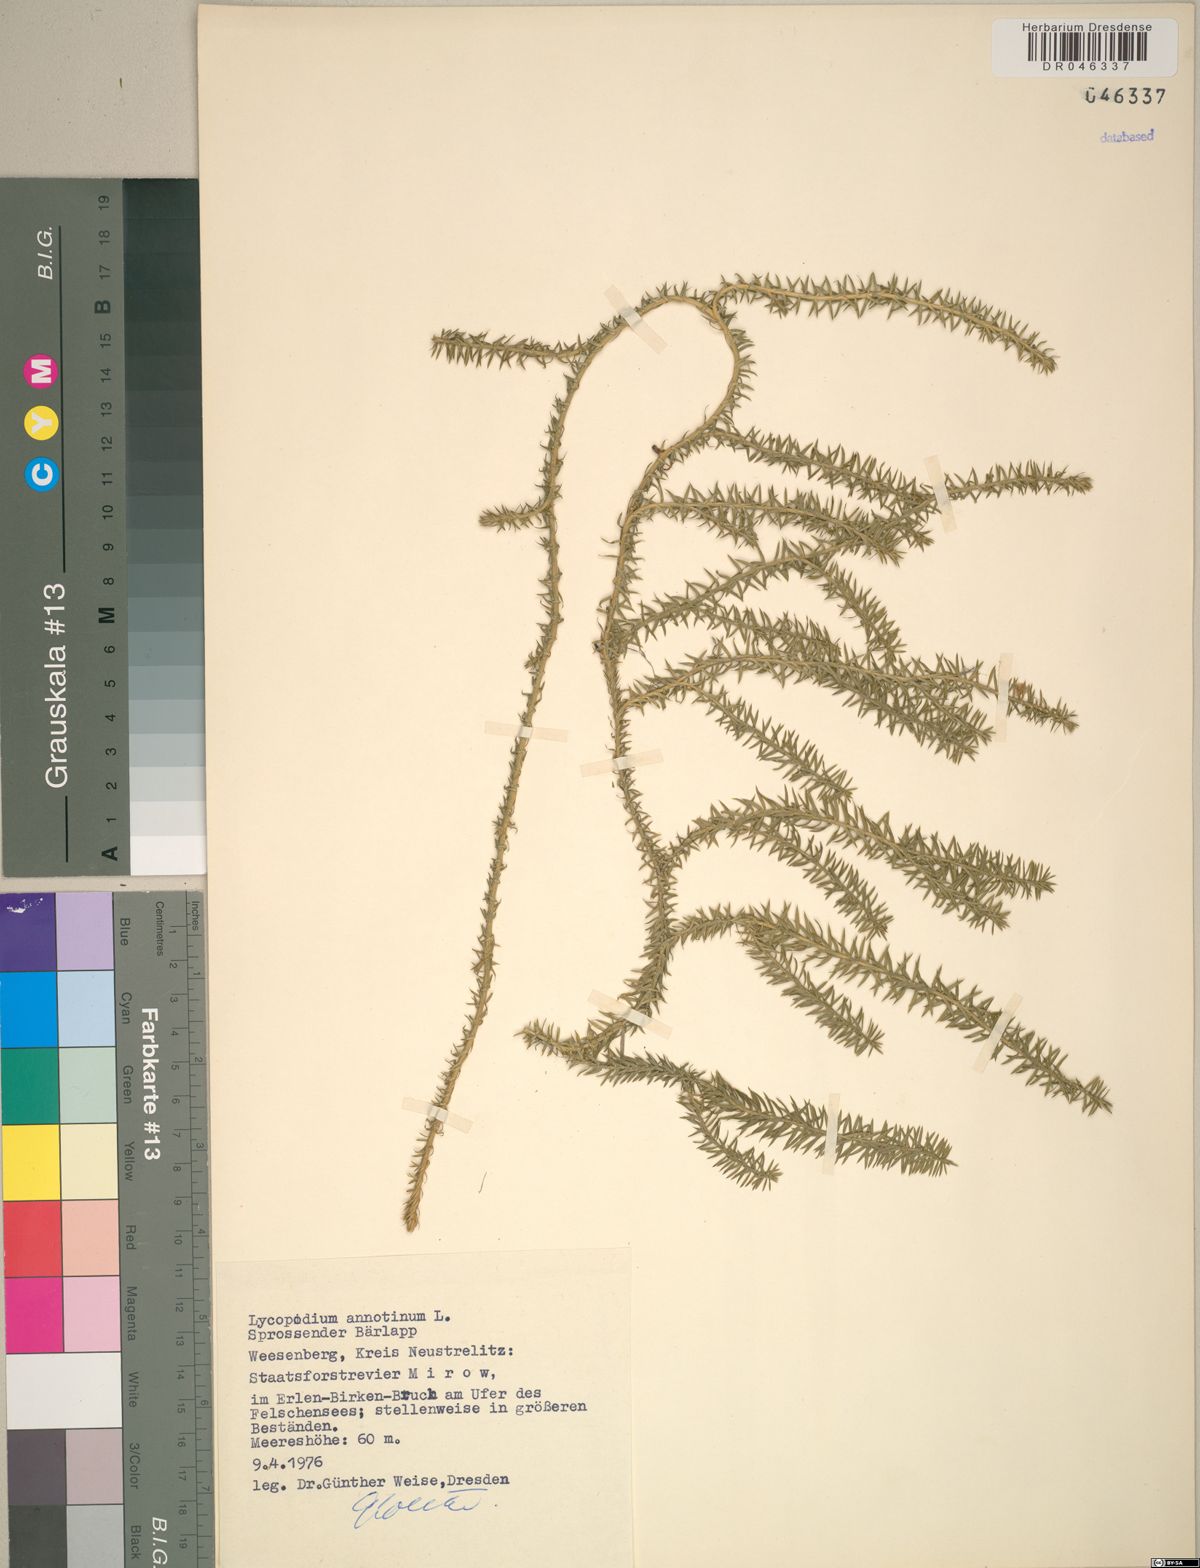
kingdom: Plantae
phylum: Tracheophyta
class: Lycopodiopsida
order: Lycopodiales
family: Lycopodiaceae
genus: Spinulum
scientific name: Spinulum annotinum
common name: Interrupted club-moss
